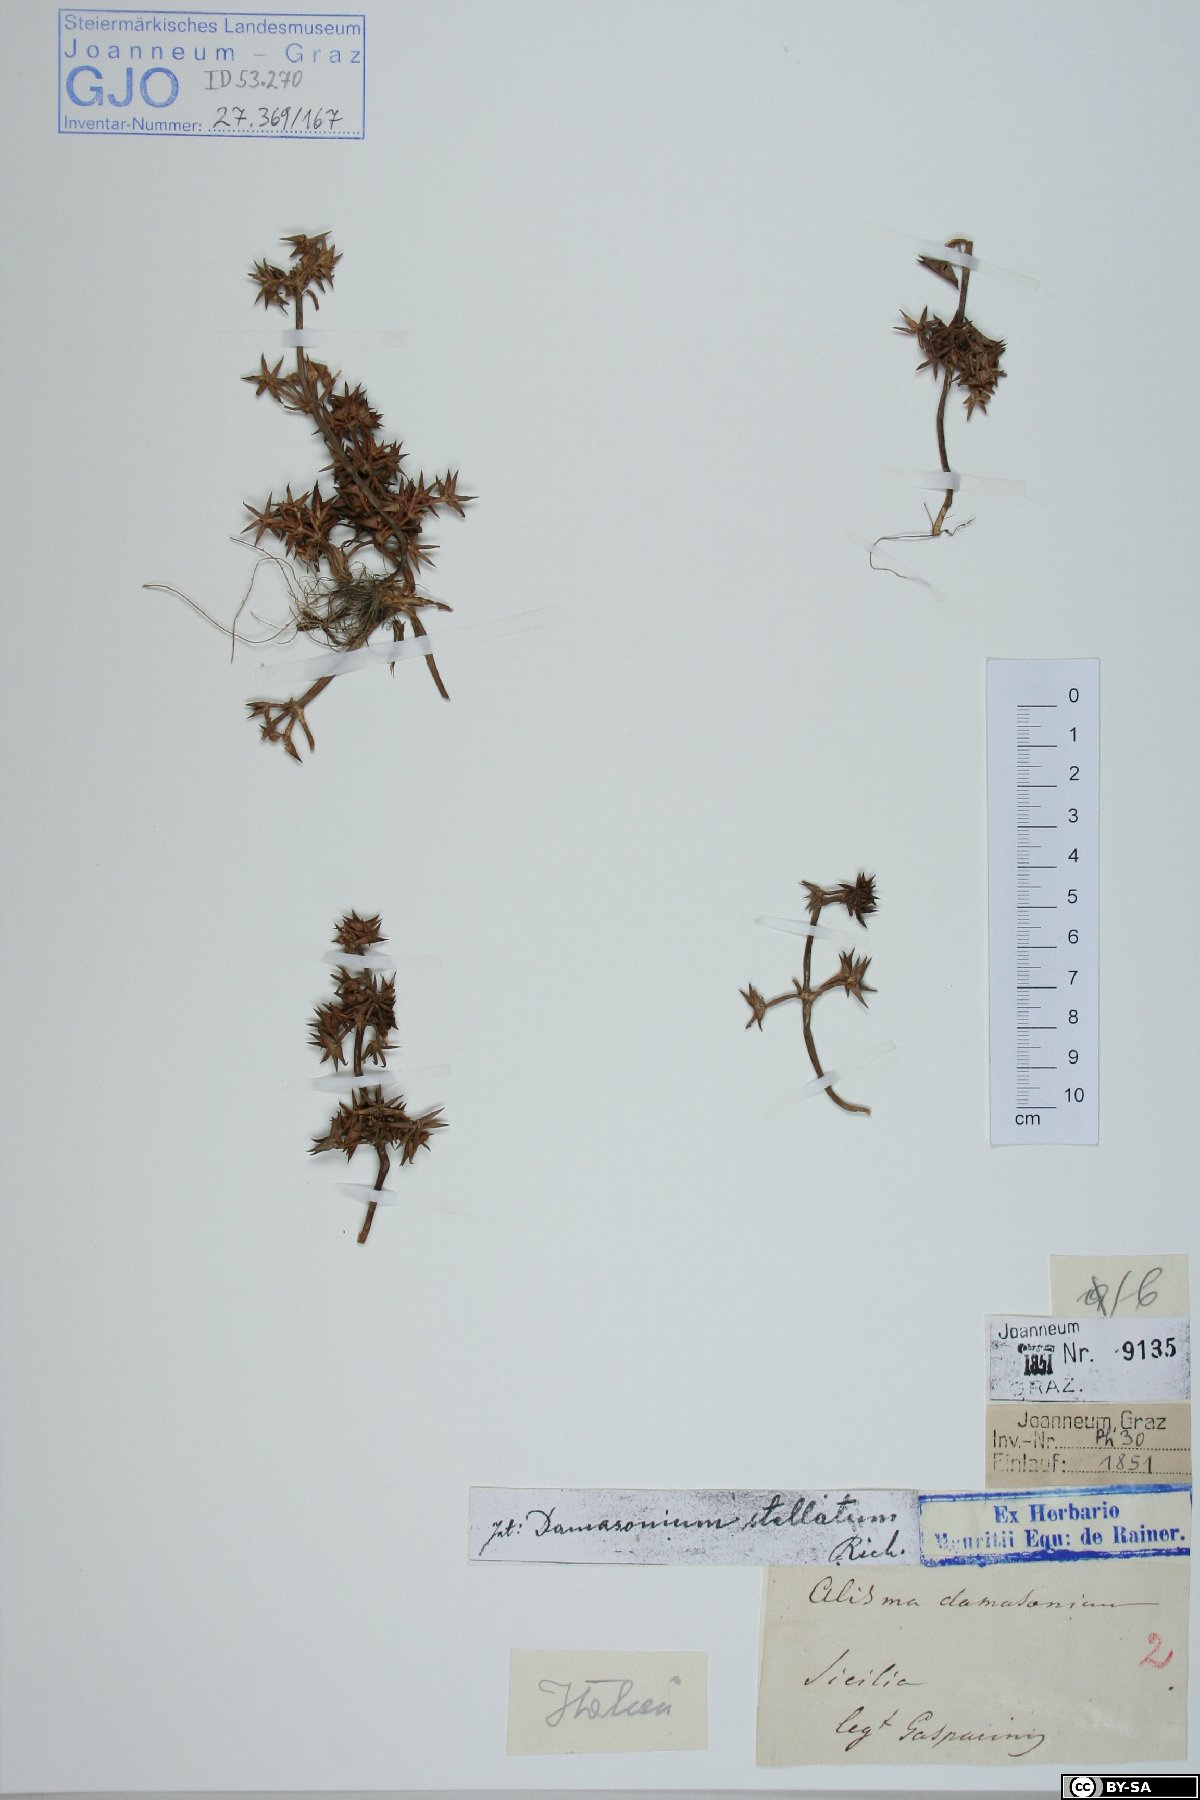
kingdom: Plantae
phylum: Tracheophyta
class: Liliopsida
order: Alismatales
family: Alismataceae
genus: Damasonium
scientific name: Damasonium alisma
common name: Starfruit
